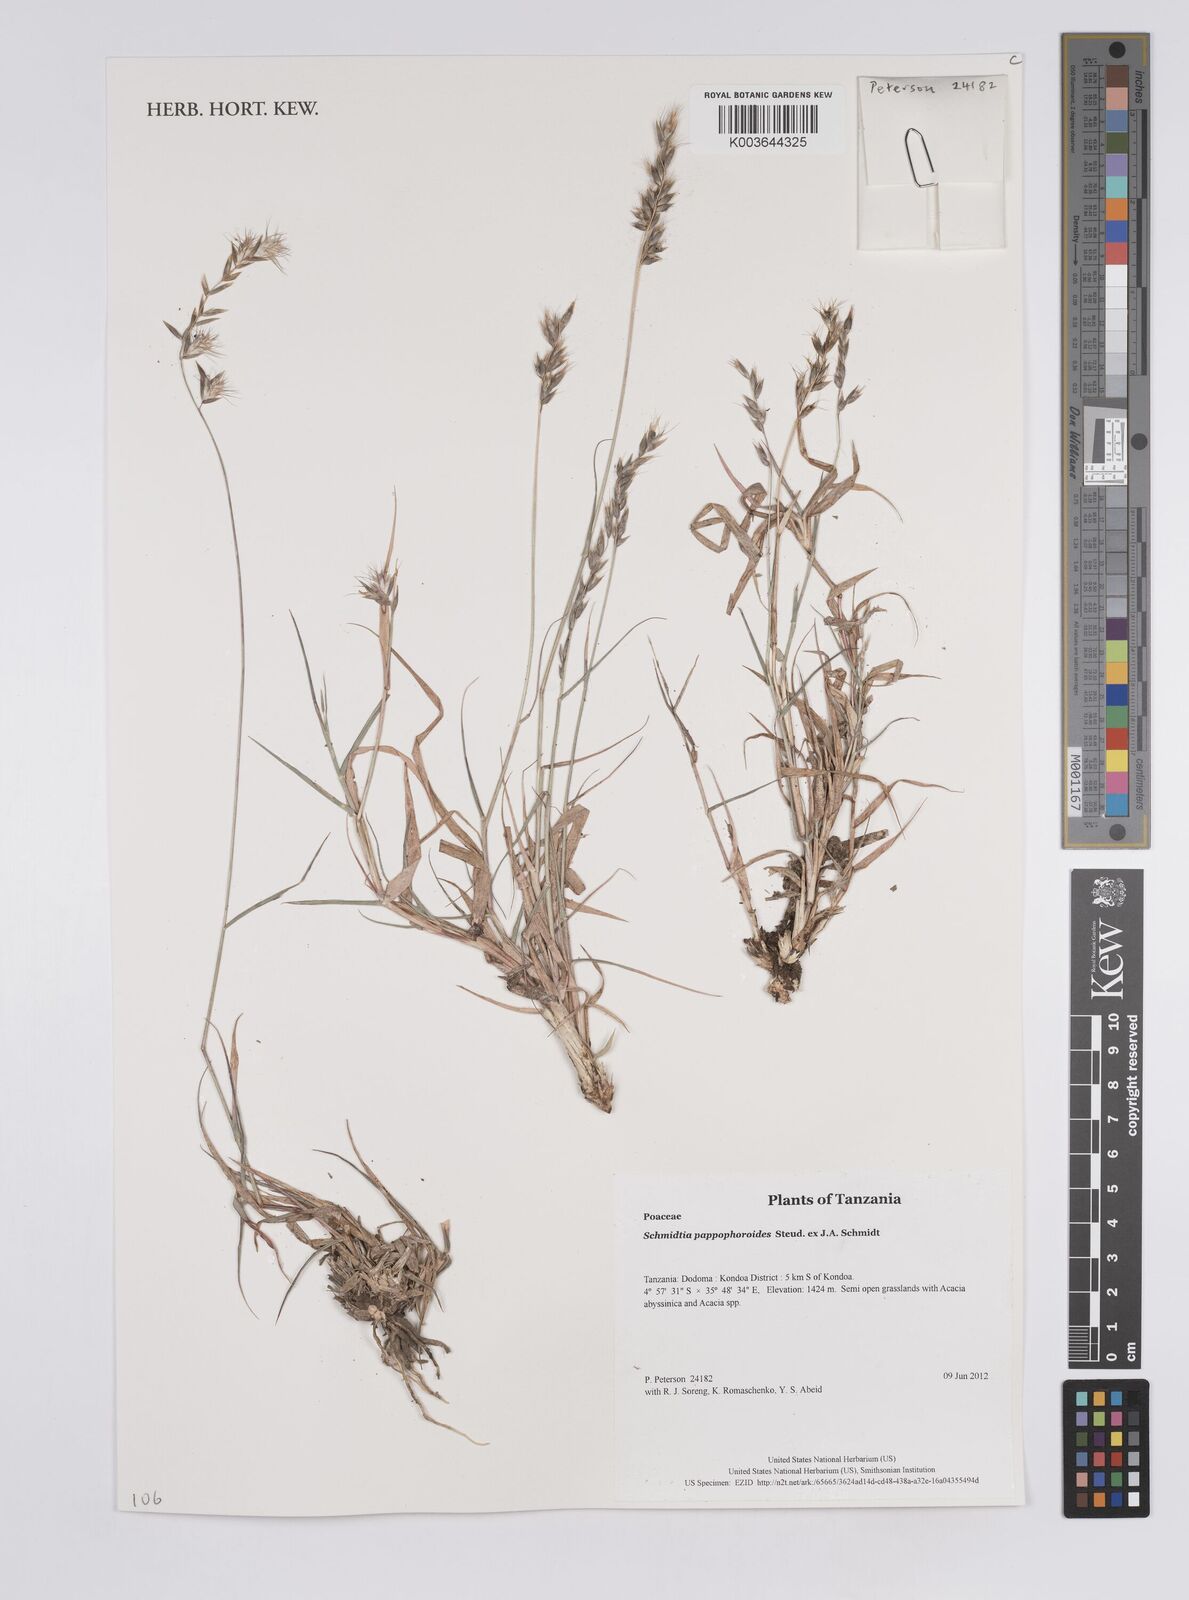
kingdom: Plantae
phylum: Tracheophyta
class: Liliopsida
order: Poales
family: Poaceae
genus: Schmidtia
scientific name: Schmidtia pappophoroides
